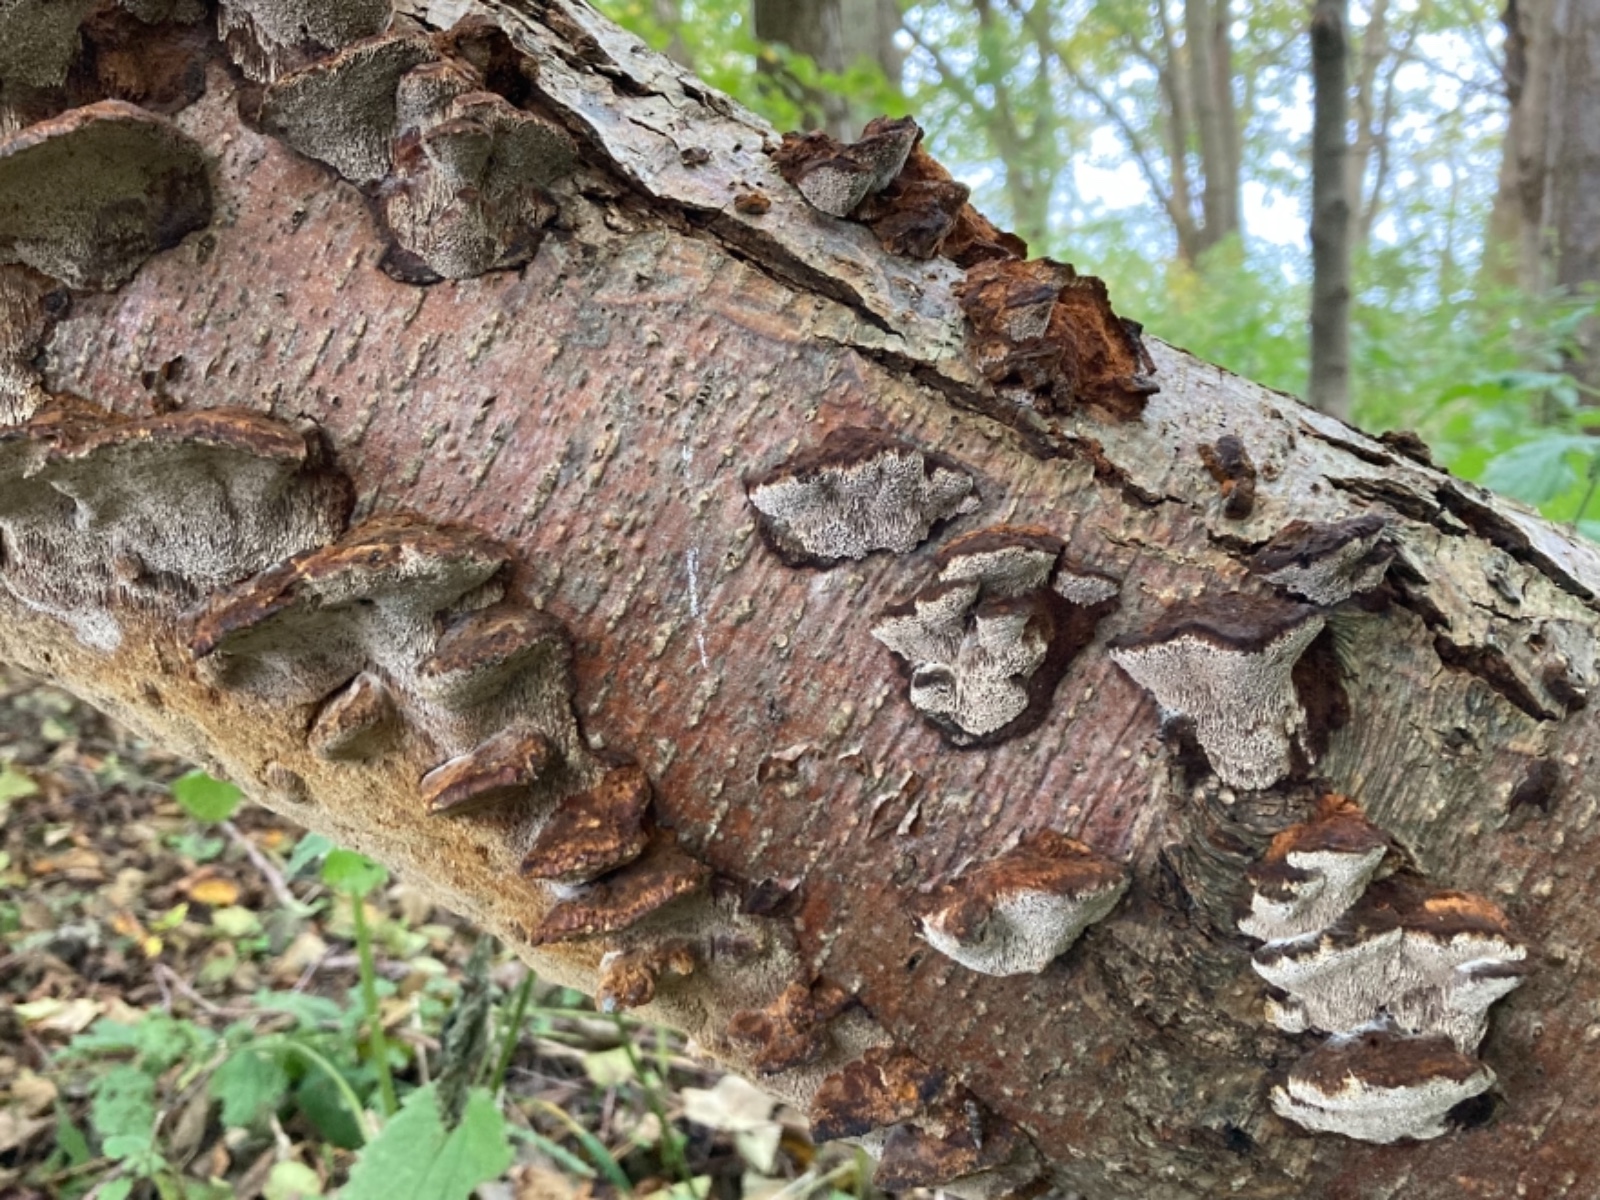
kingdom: Fungi
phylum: Basidiomycota
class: Agaricomycetes
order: Hymenochaetales
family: Hymenochaetaceae
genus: Xanthoporia
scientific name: Xanthoporia radiata
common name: elle-spejlporesvamp
